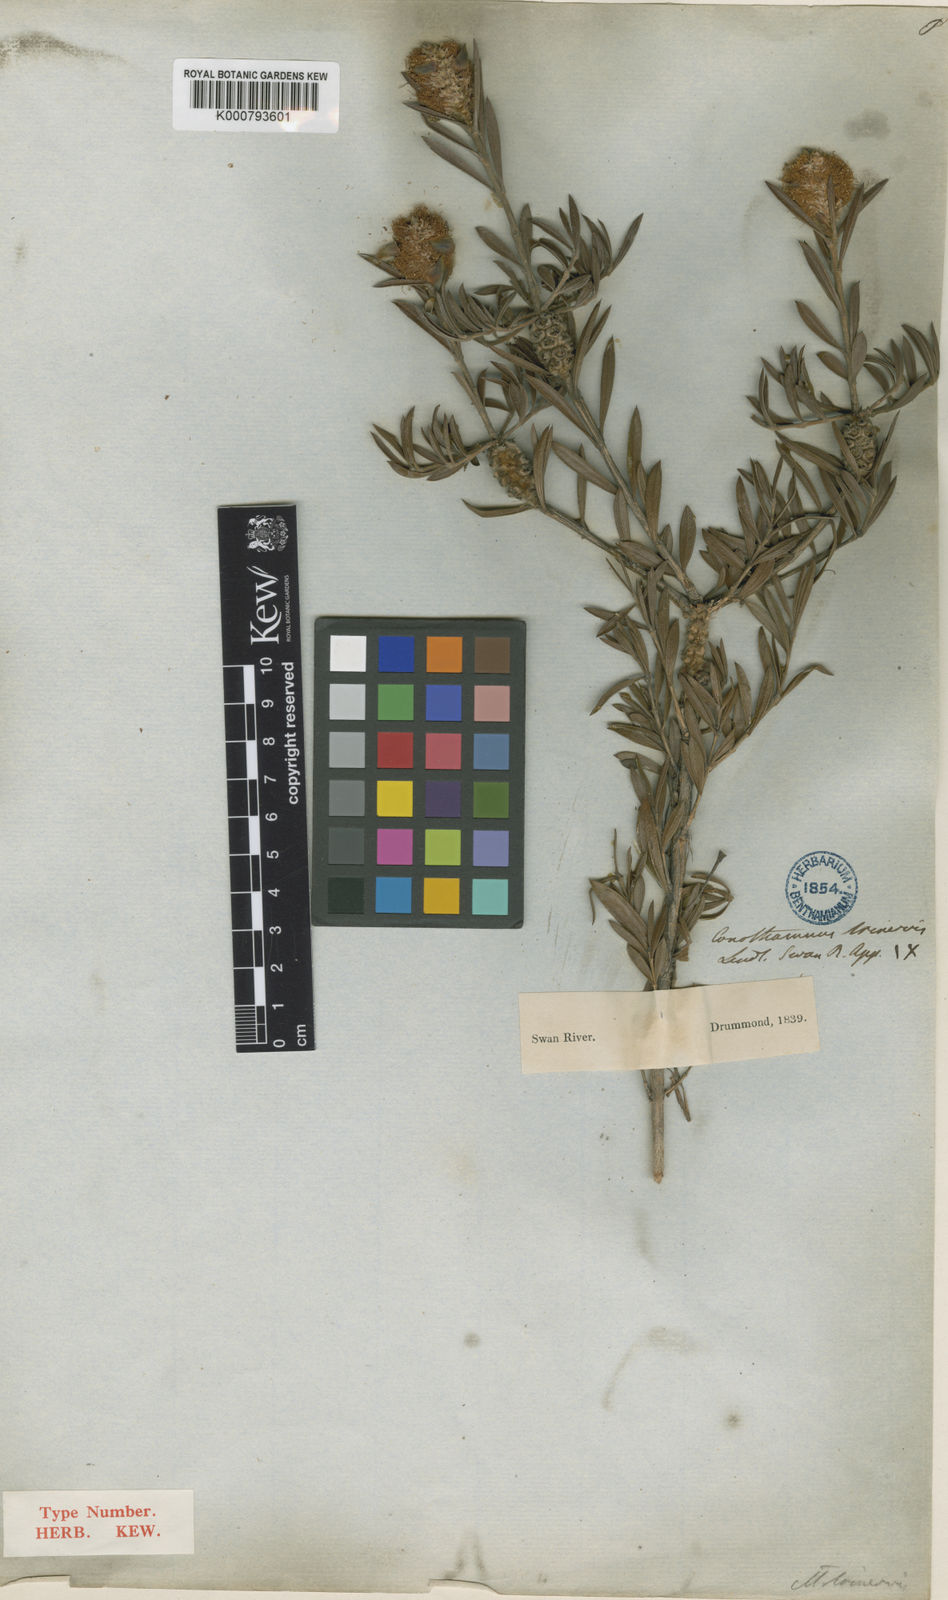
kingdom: Plantae
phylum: Tracheophyta
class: Magnoliopsida
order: Myrtales
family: Myrtaceae
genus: Melaleuca
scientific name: Melaleuca cowleyae
